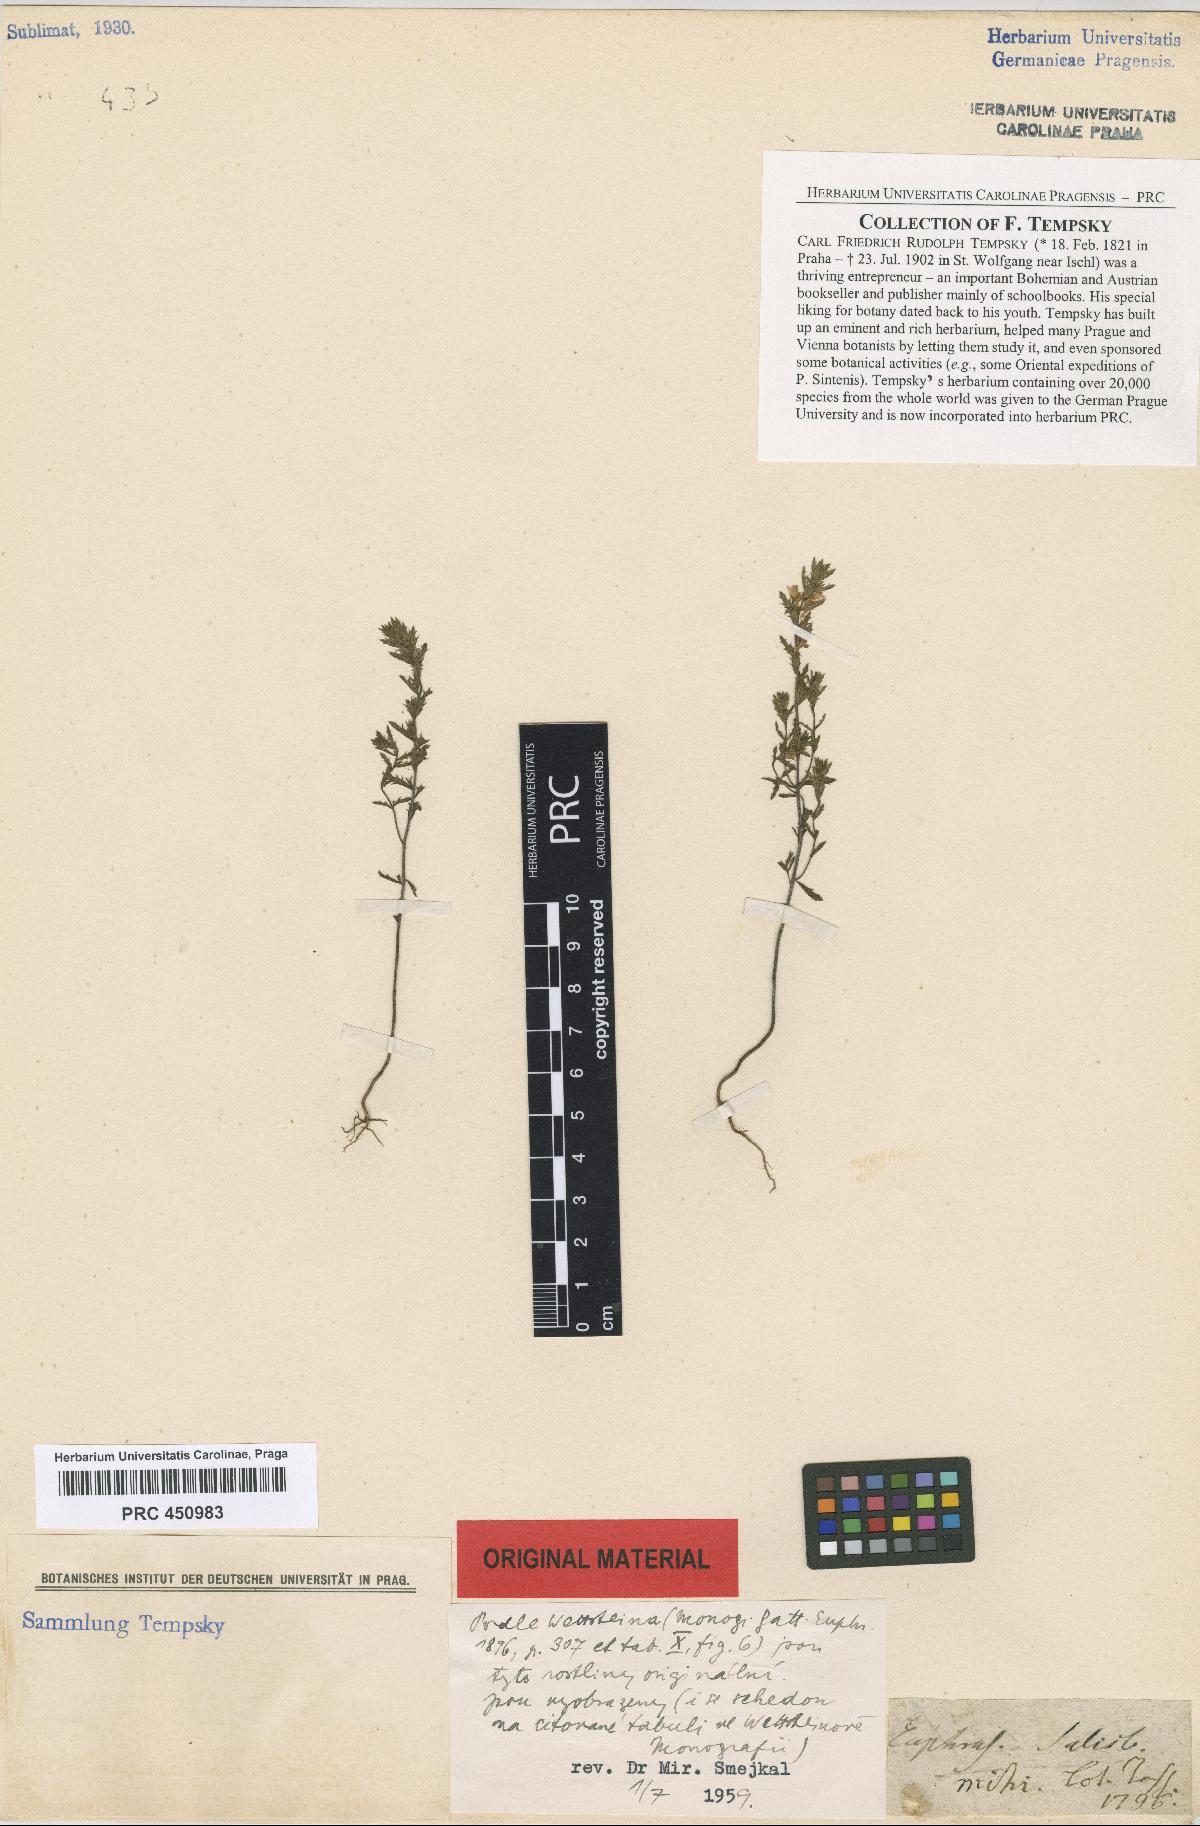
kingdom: Plantae
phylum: Tracheophyta
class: Magnoliopsida
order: Lamiales
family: Orobanchaceae
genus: Euphrasia
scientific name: Euphrasia salisburgensis
